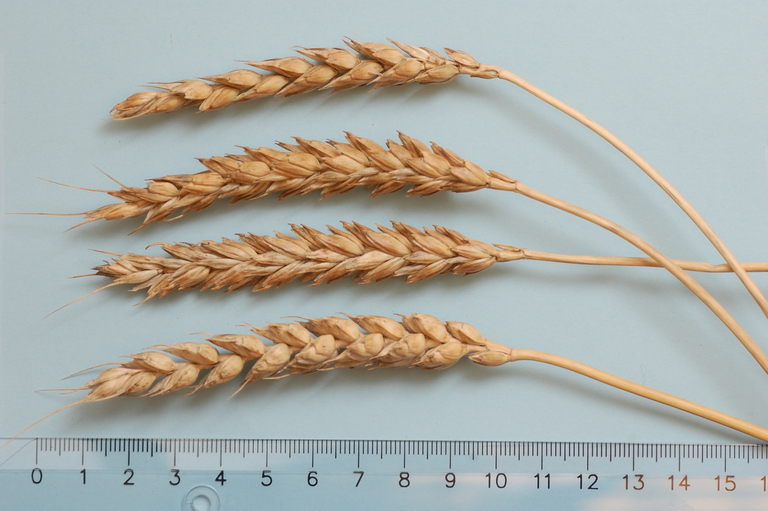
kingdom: Plantae
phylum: Tracheophyta
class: Liliopsida
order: Poales
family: Poaceae
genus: Triticum
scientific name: Triticum aestivum
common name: Common wheat
